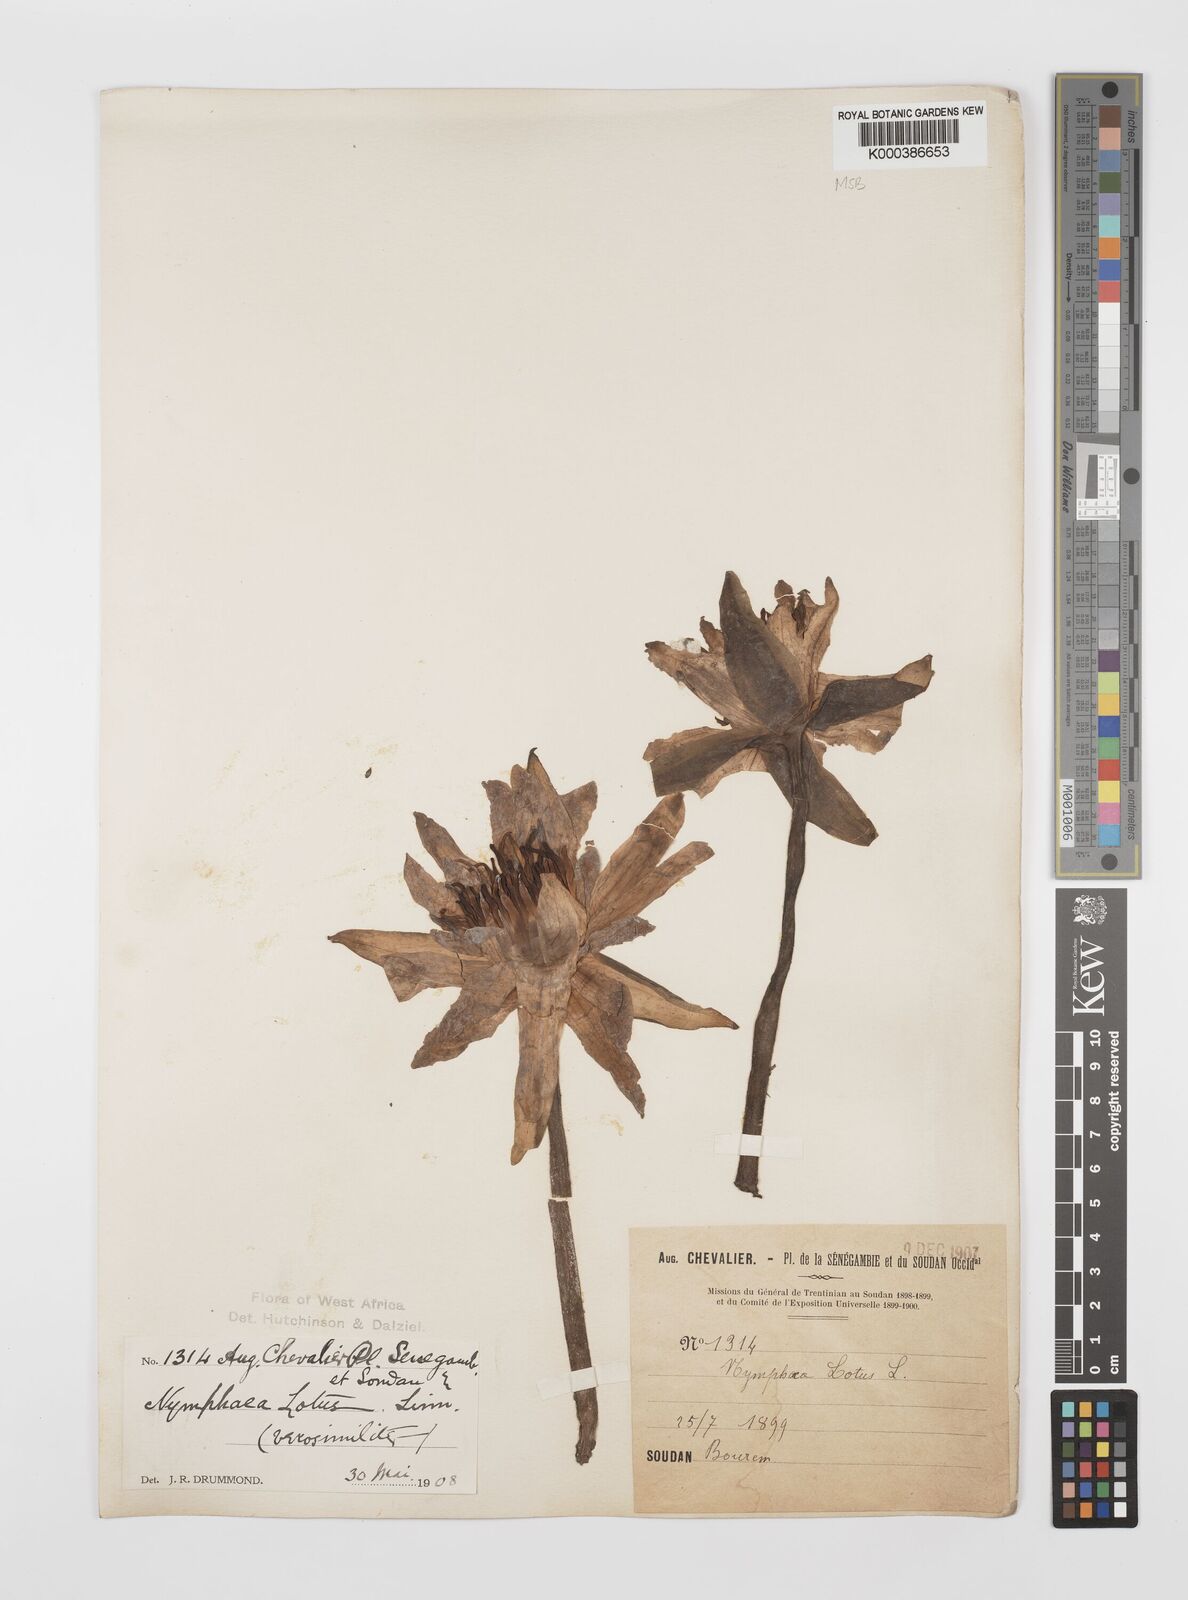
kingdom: Plantae
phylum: Tracheophyta
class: Magnoliopsida
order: Nymphaeales
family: Nymphaeaceae
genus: Nymphaea
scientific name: Nymphaea lotus
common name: White egyptian lotus
